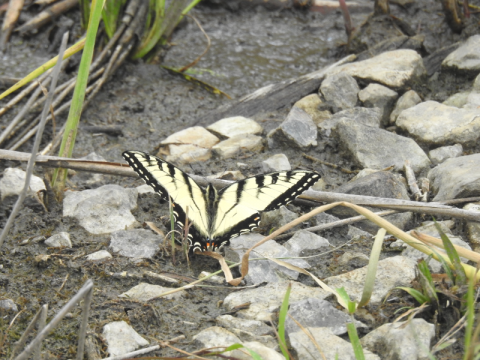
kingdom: Animalia
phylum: Arthropoda
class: Insecta
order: Lepidoptera
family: Papilionidae
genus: Pterourus
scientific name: Pterourus glaucus
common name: Eastern Tiger Swallowtail
